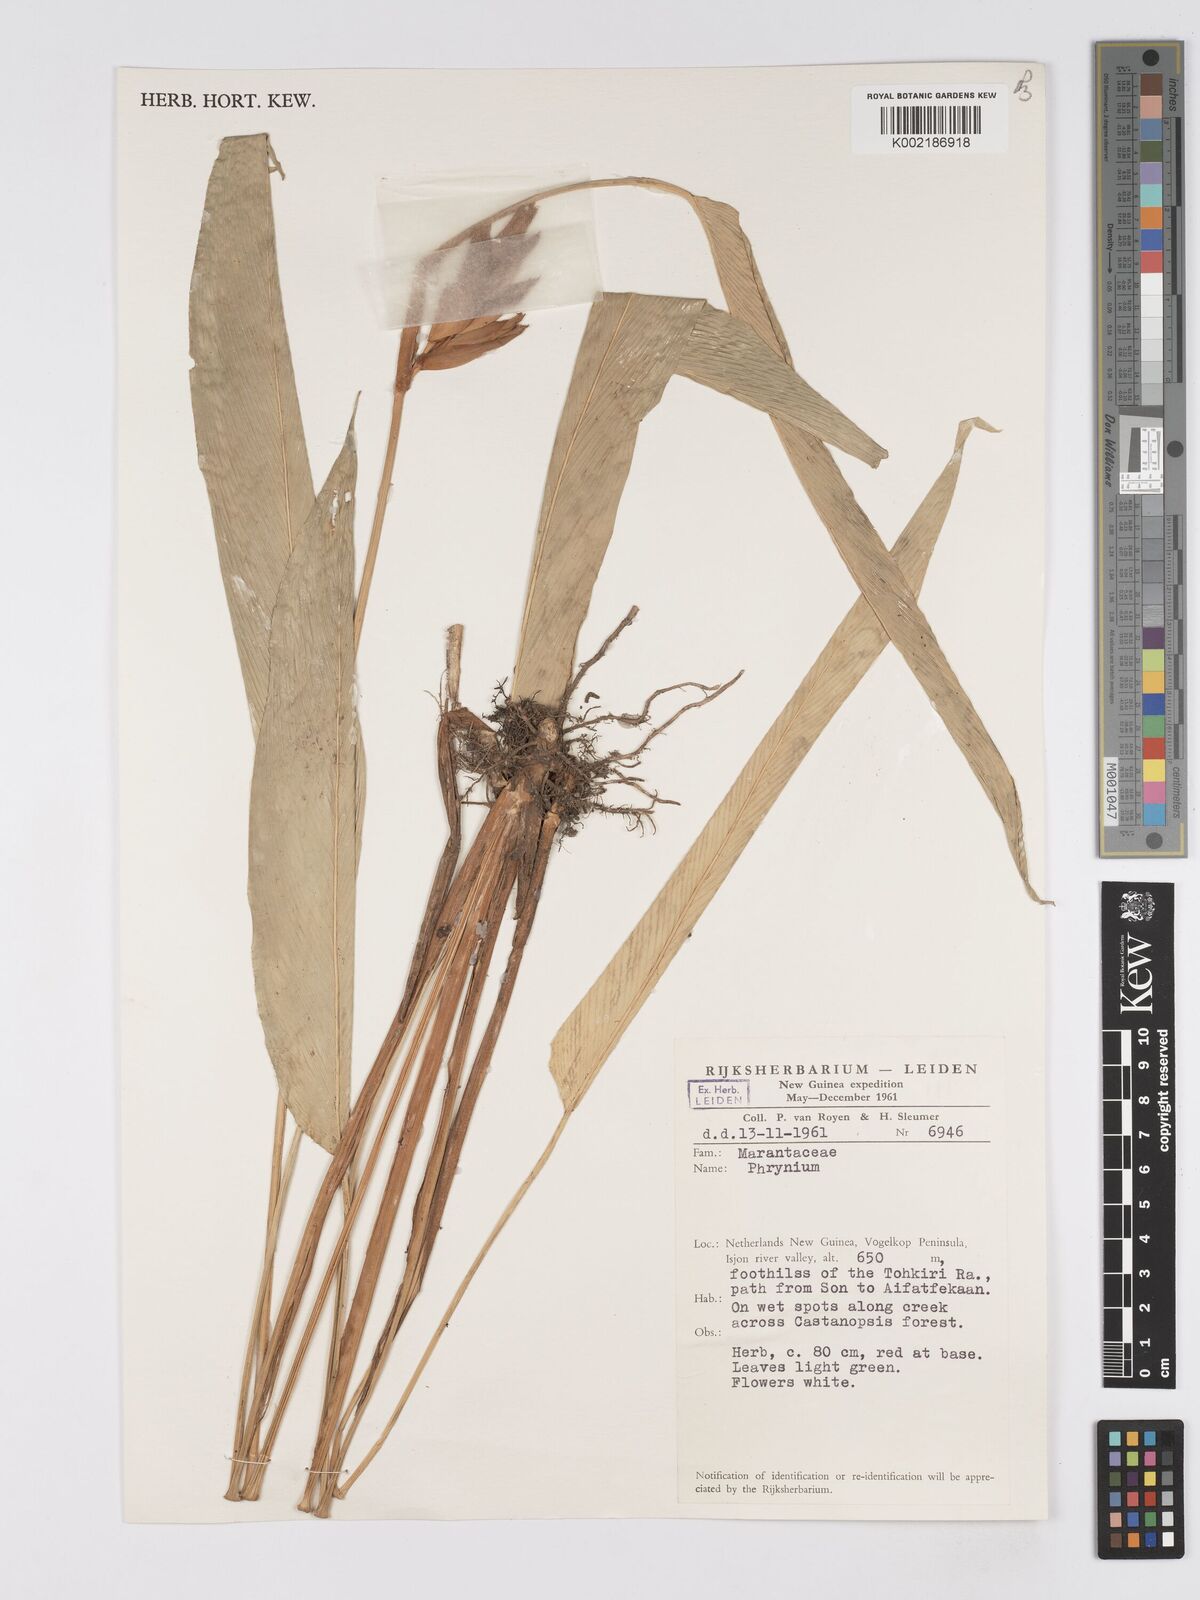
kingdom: Plantae
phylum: Tracheophyta
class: Liliopsida
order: Zingiberales
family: Marantaceae
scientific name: Marantaceae
